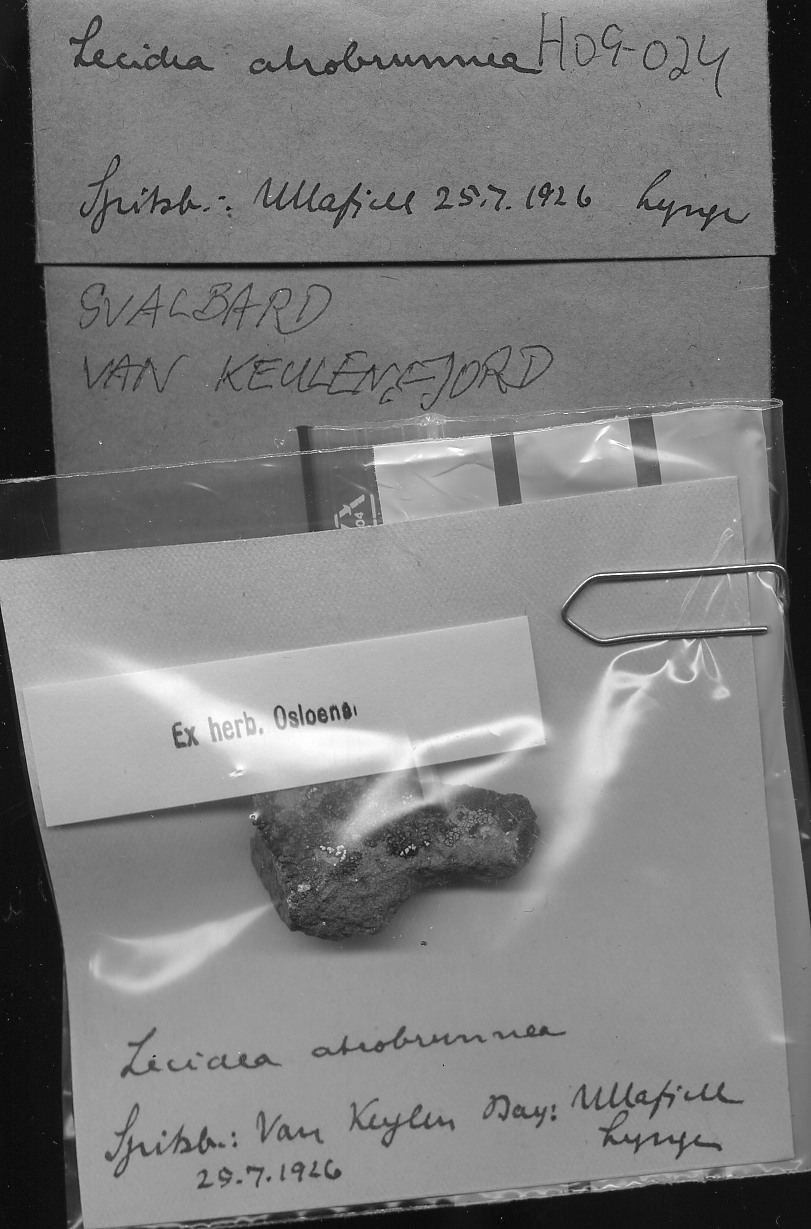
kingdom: Fungi
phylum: Ascomycota
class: Lecanoromycetes
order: Lecideales
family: Lecideaceae
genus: Lecidea
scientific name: Lecidea atrobrunnea
